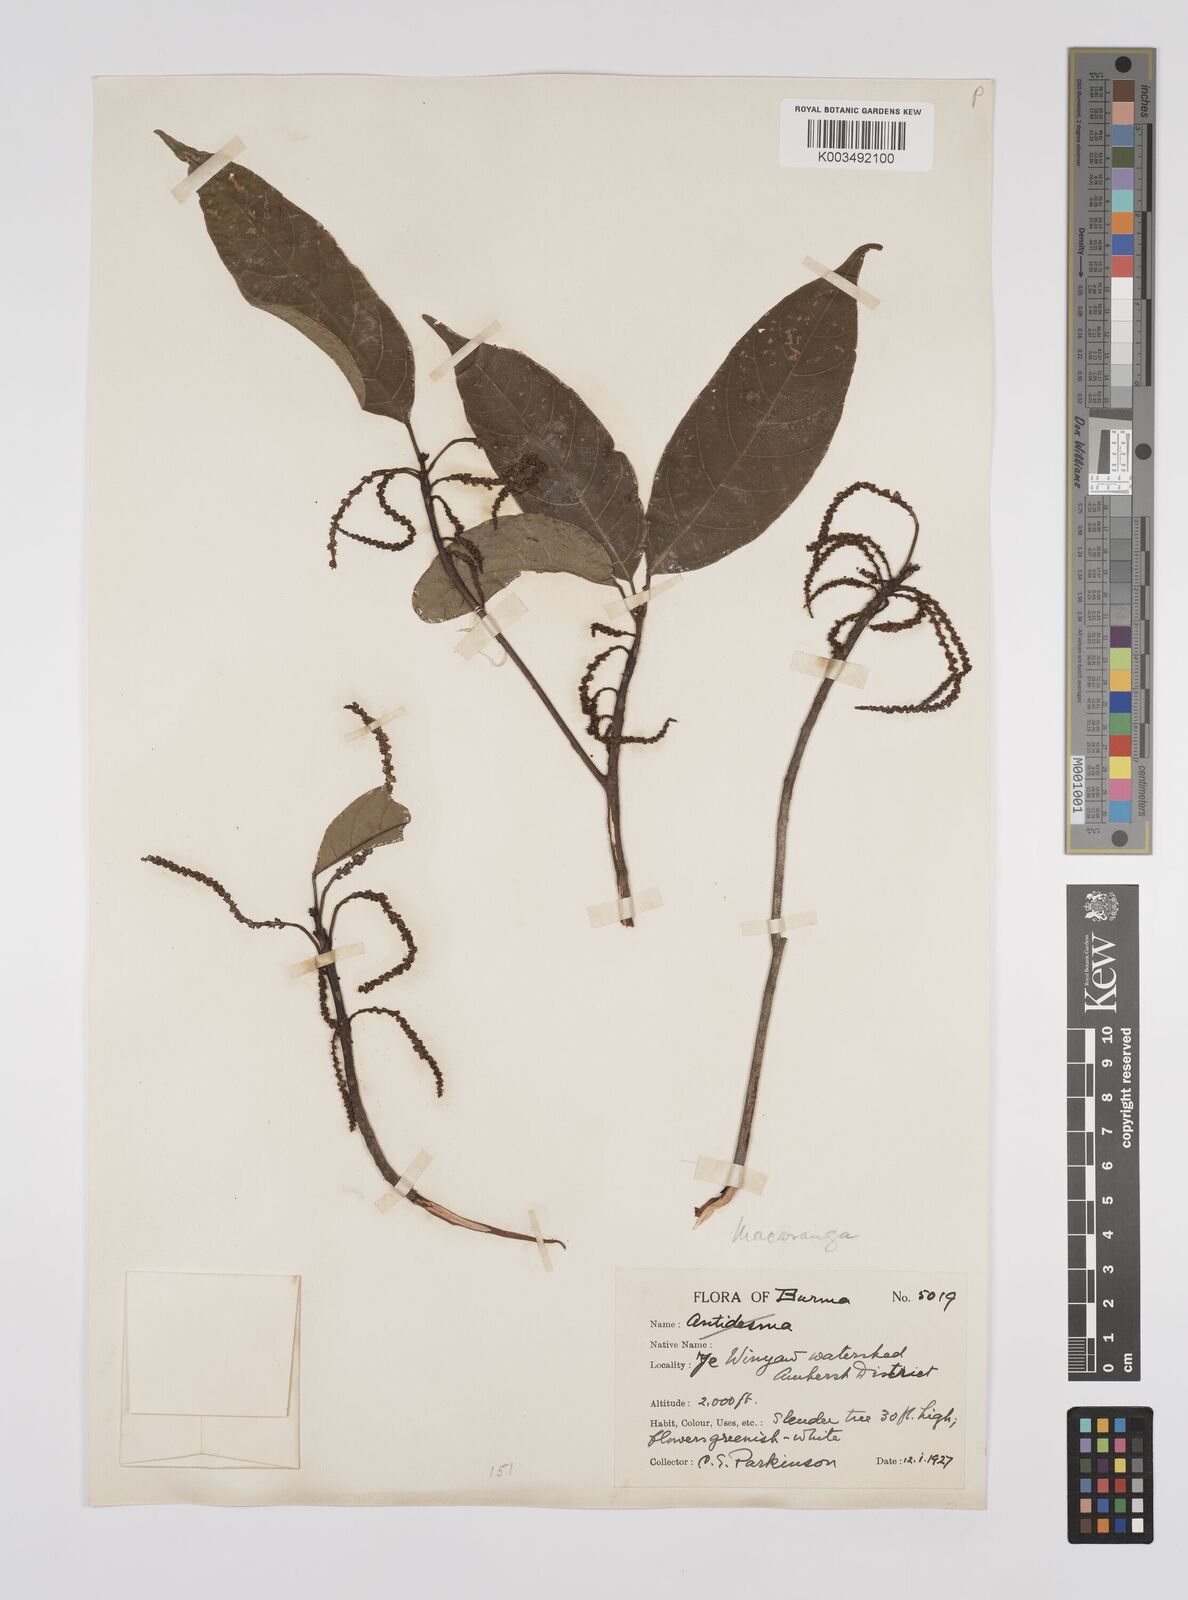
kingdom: Plantae
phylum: Tracheophyta
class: Magnoliopsida
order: Malpighiales
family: Euphorbiaceae
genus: Macaranga
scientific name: Macaranga andamanica
